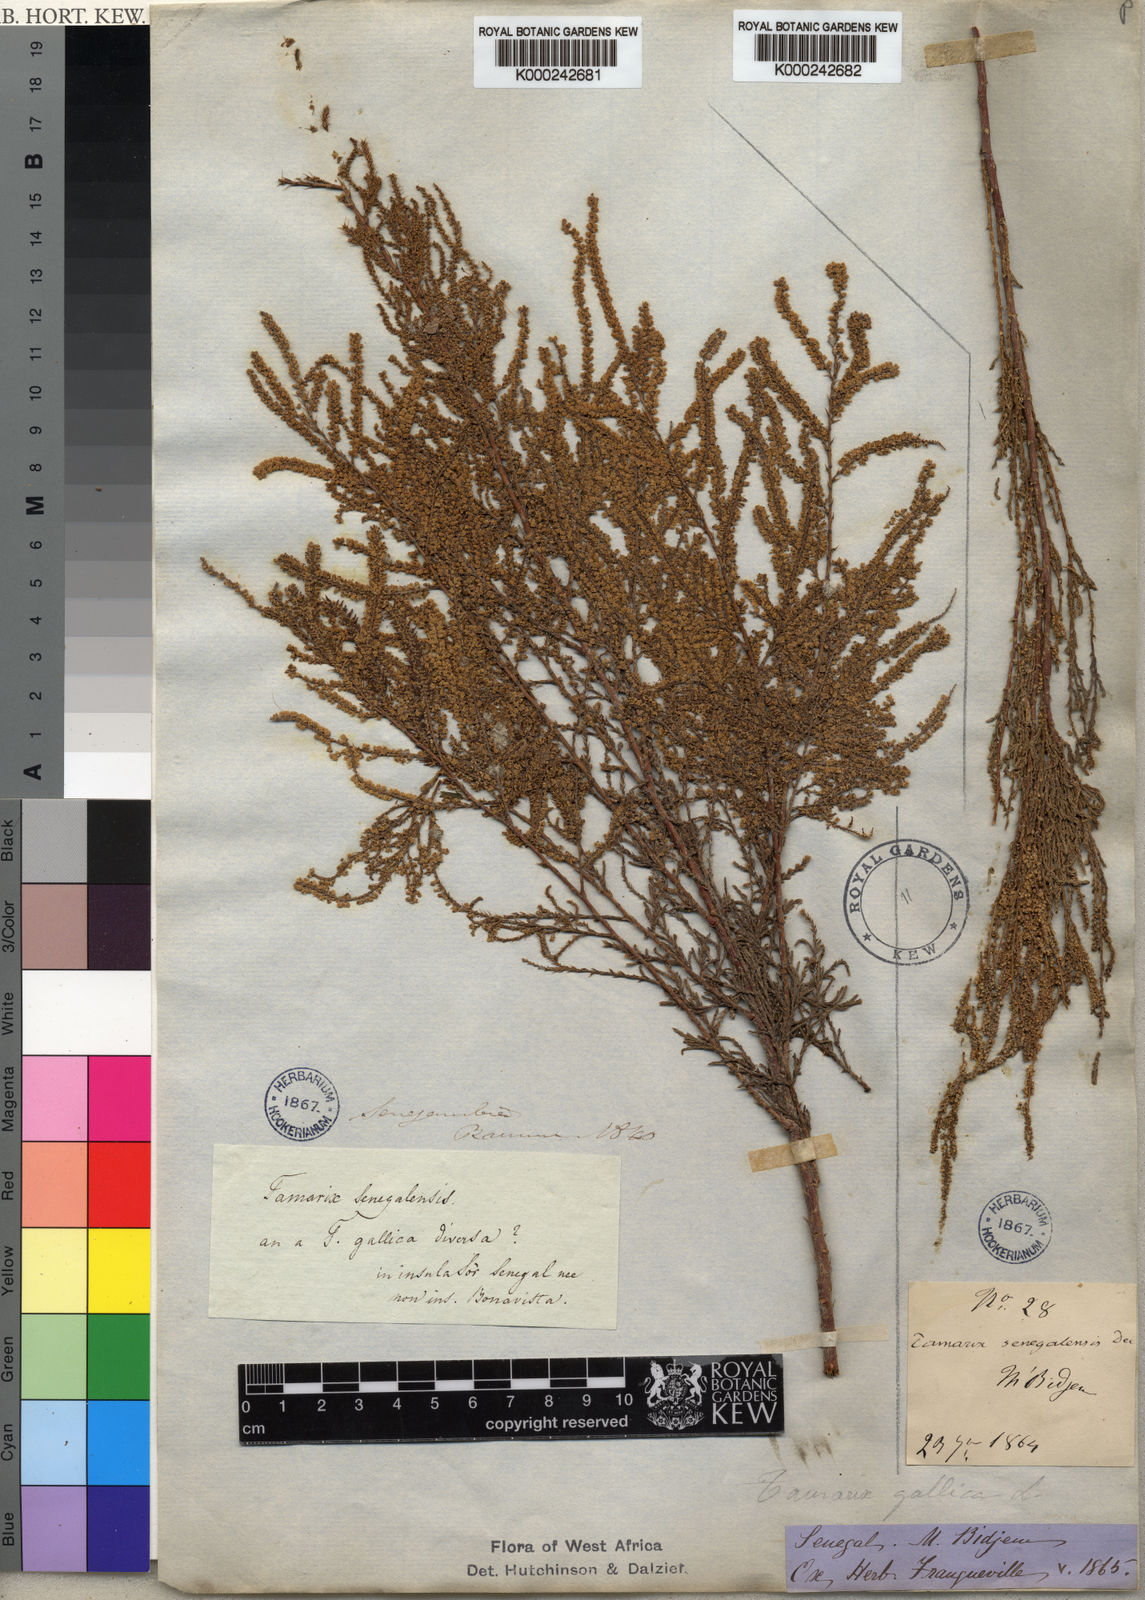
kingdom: Plantae
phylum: Tracheophyta
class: Magnoliopsida
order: Caryophyllales
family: Tamaricaceae
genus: Tamarix
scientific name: Tamarix senegalensis
